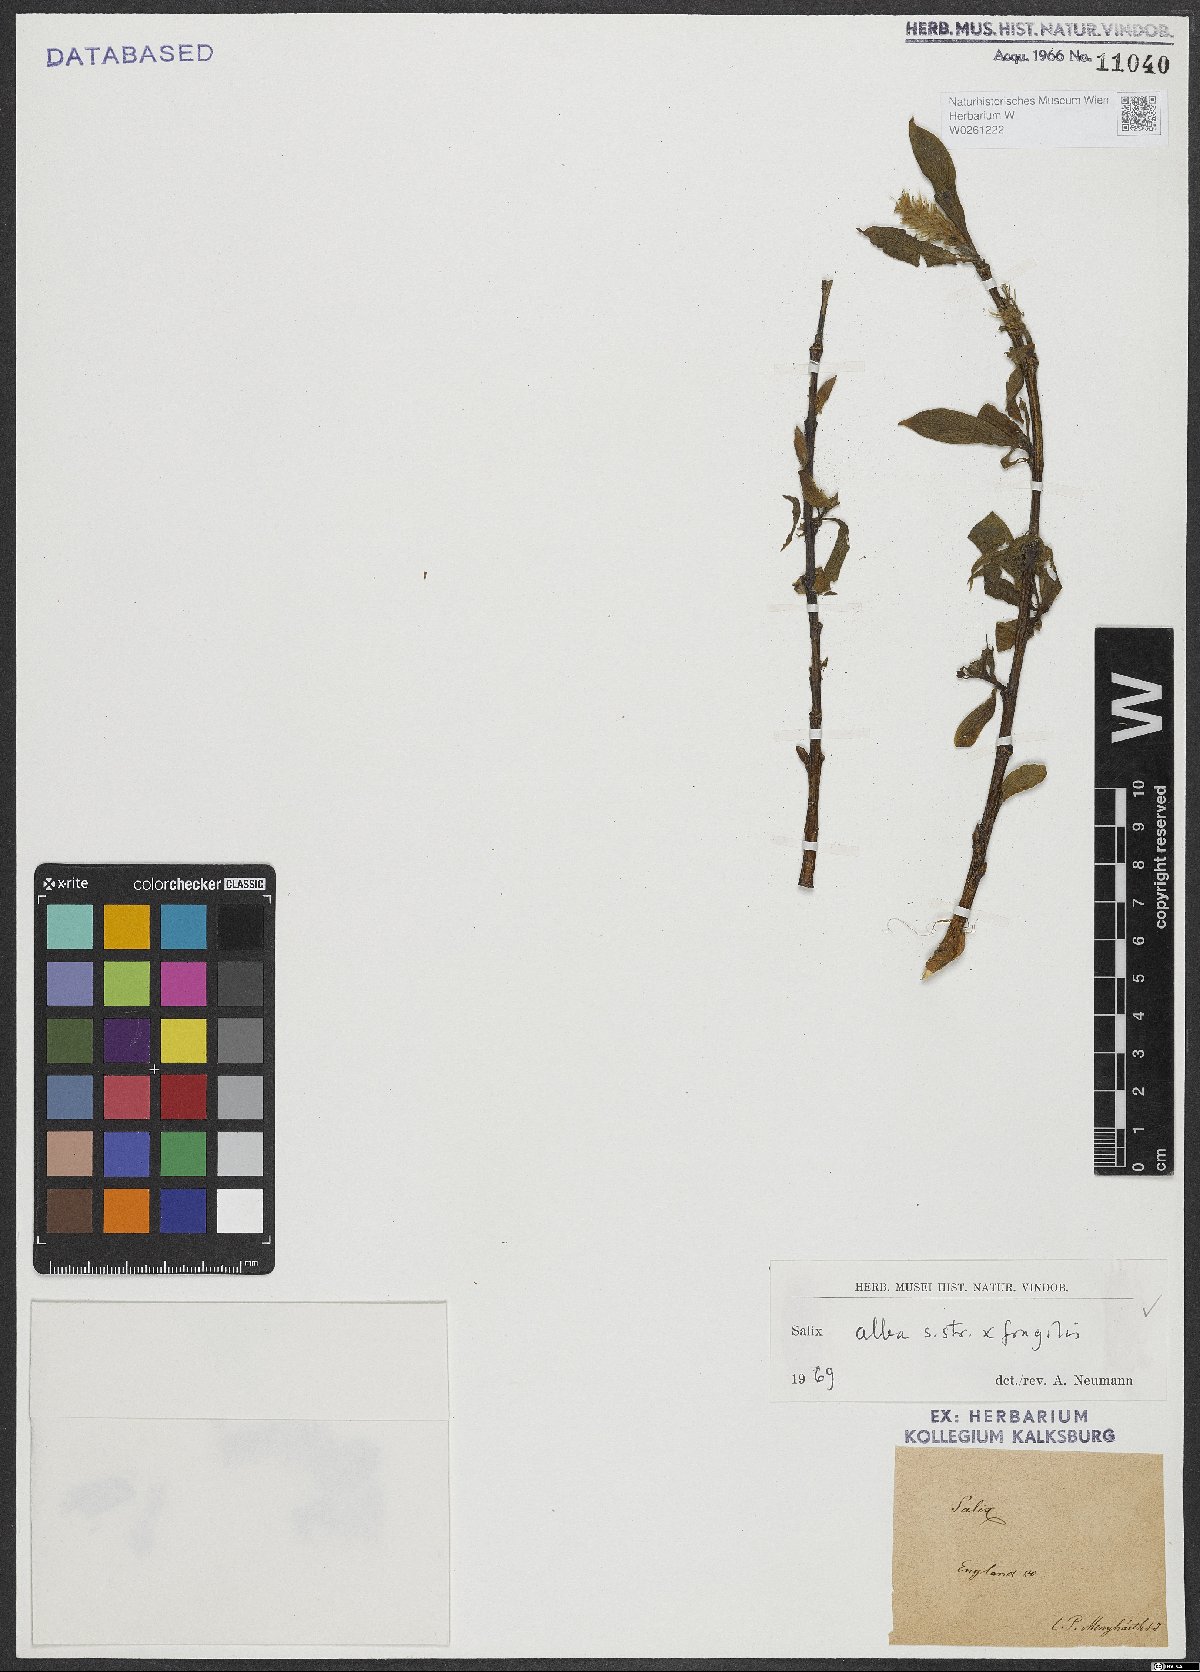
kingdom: Plantae
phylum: Tracheophyta
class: Magnoliopsida
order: Malpighiales
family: Salicaceae
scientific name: Salicaceae
